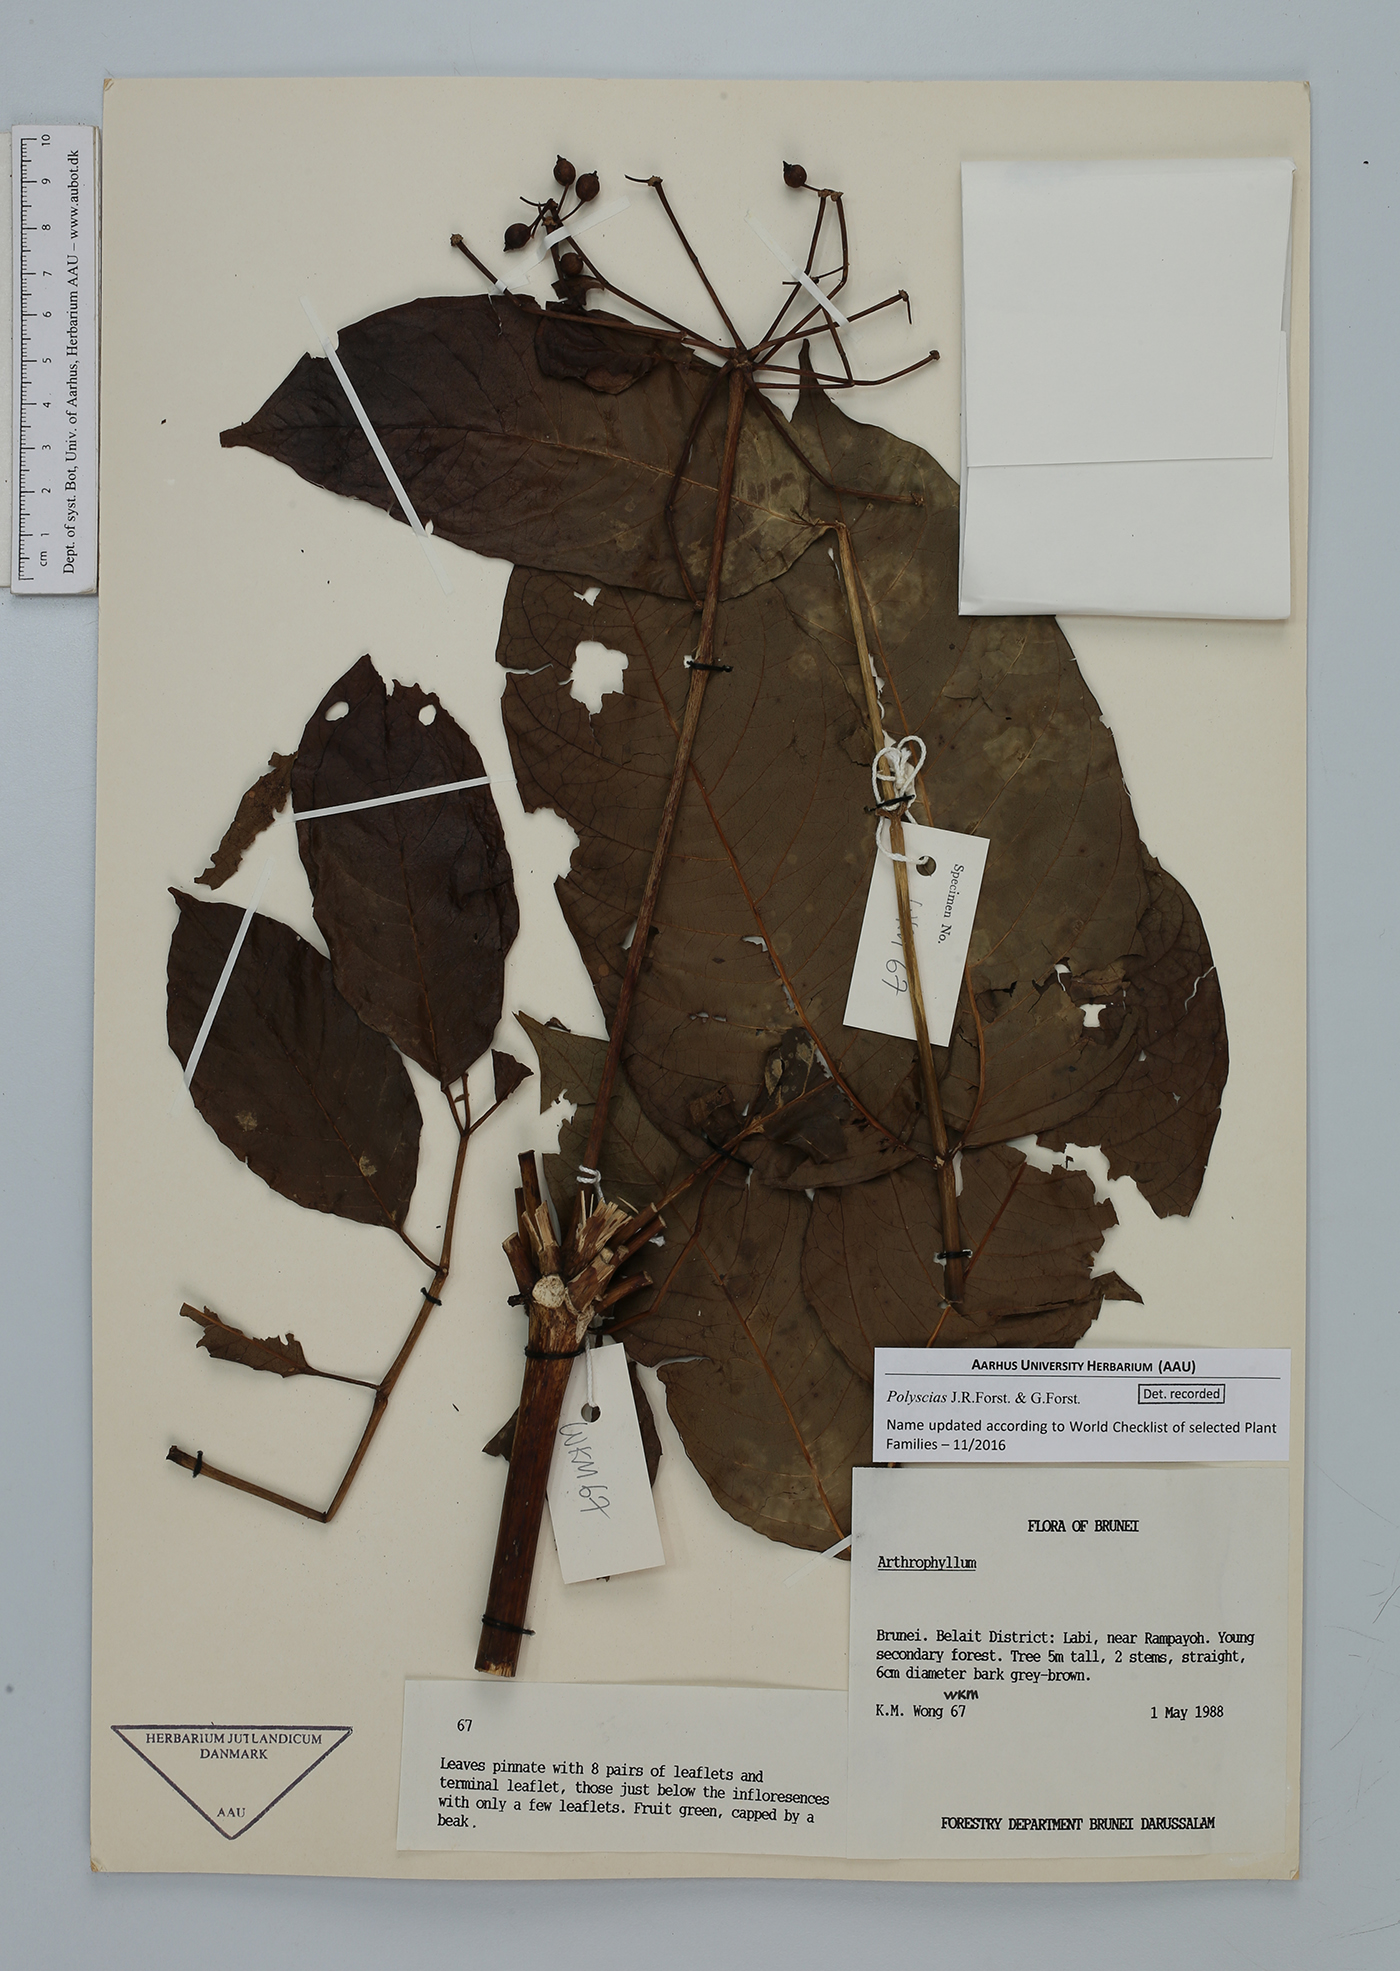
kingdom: Plantae
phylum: Tracheophyta
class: Magnoliopsida
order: Apiales
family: Araliaceae
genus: Polyscias
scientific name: Polyscias
